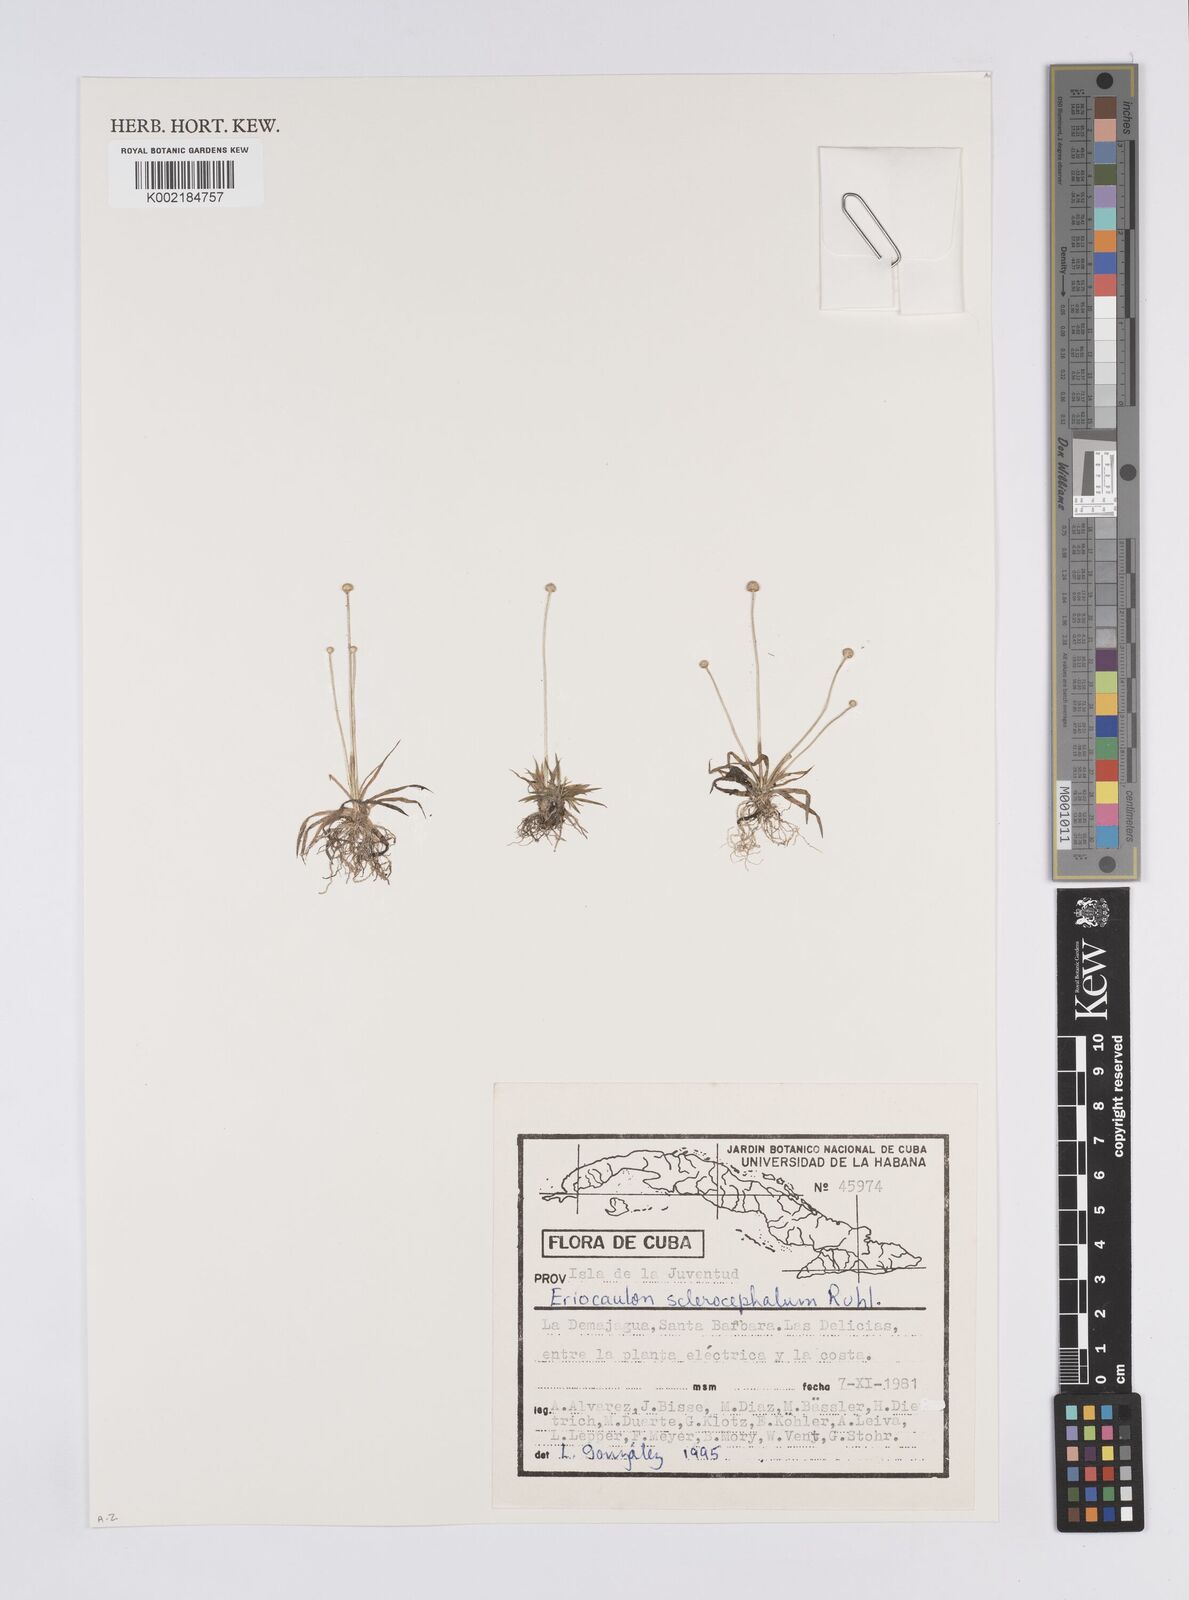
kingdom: Plantae
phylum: Tracheophyta
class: Liliopsida
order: Poales
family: Eriocaulaceae
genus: Eriocaulon
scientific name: Eriocaulon sclerocephalum
